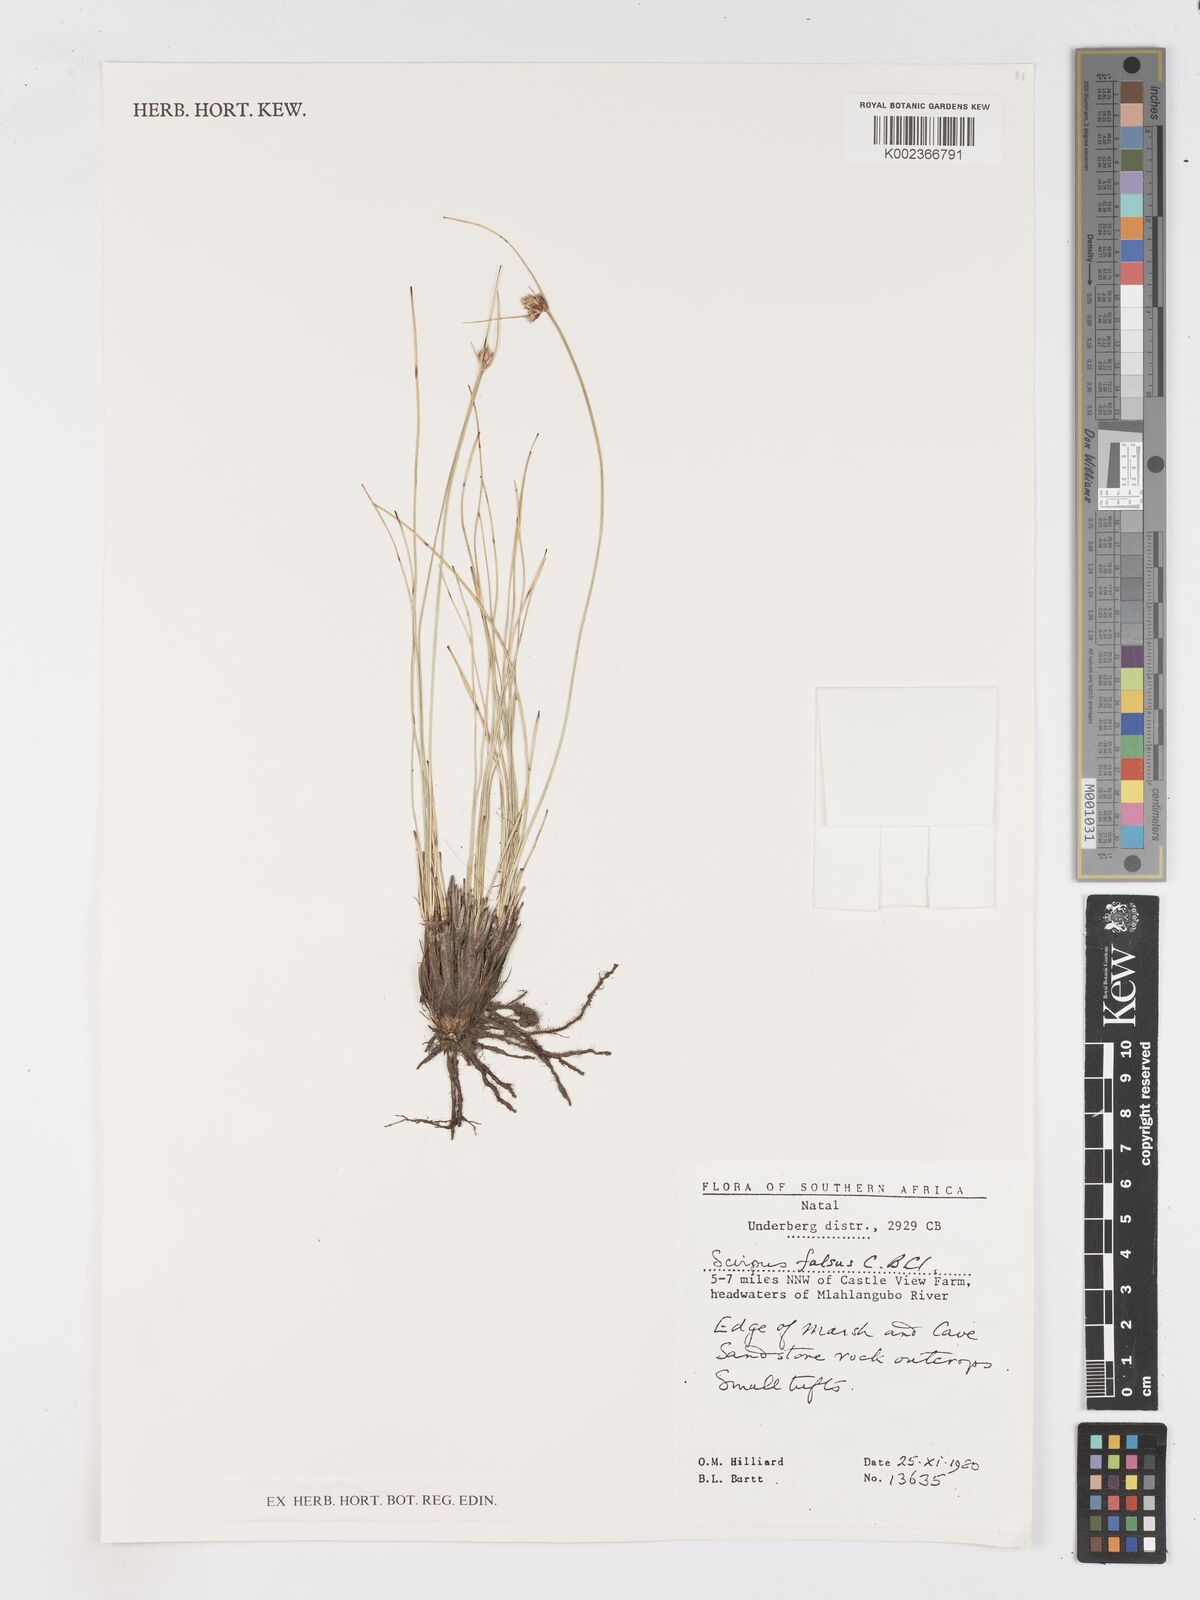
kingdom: Plantae
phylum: Tracheophyta
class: Liliopsida
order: Poales
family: Cyperaceae
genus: Dracoscirpoides
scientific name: Dracoscirpoides falsa
